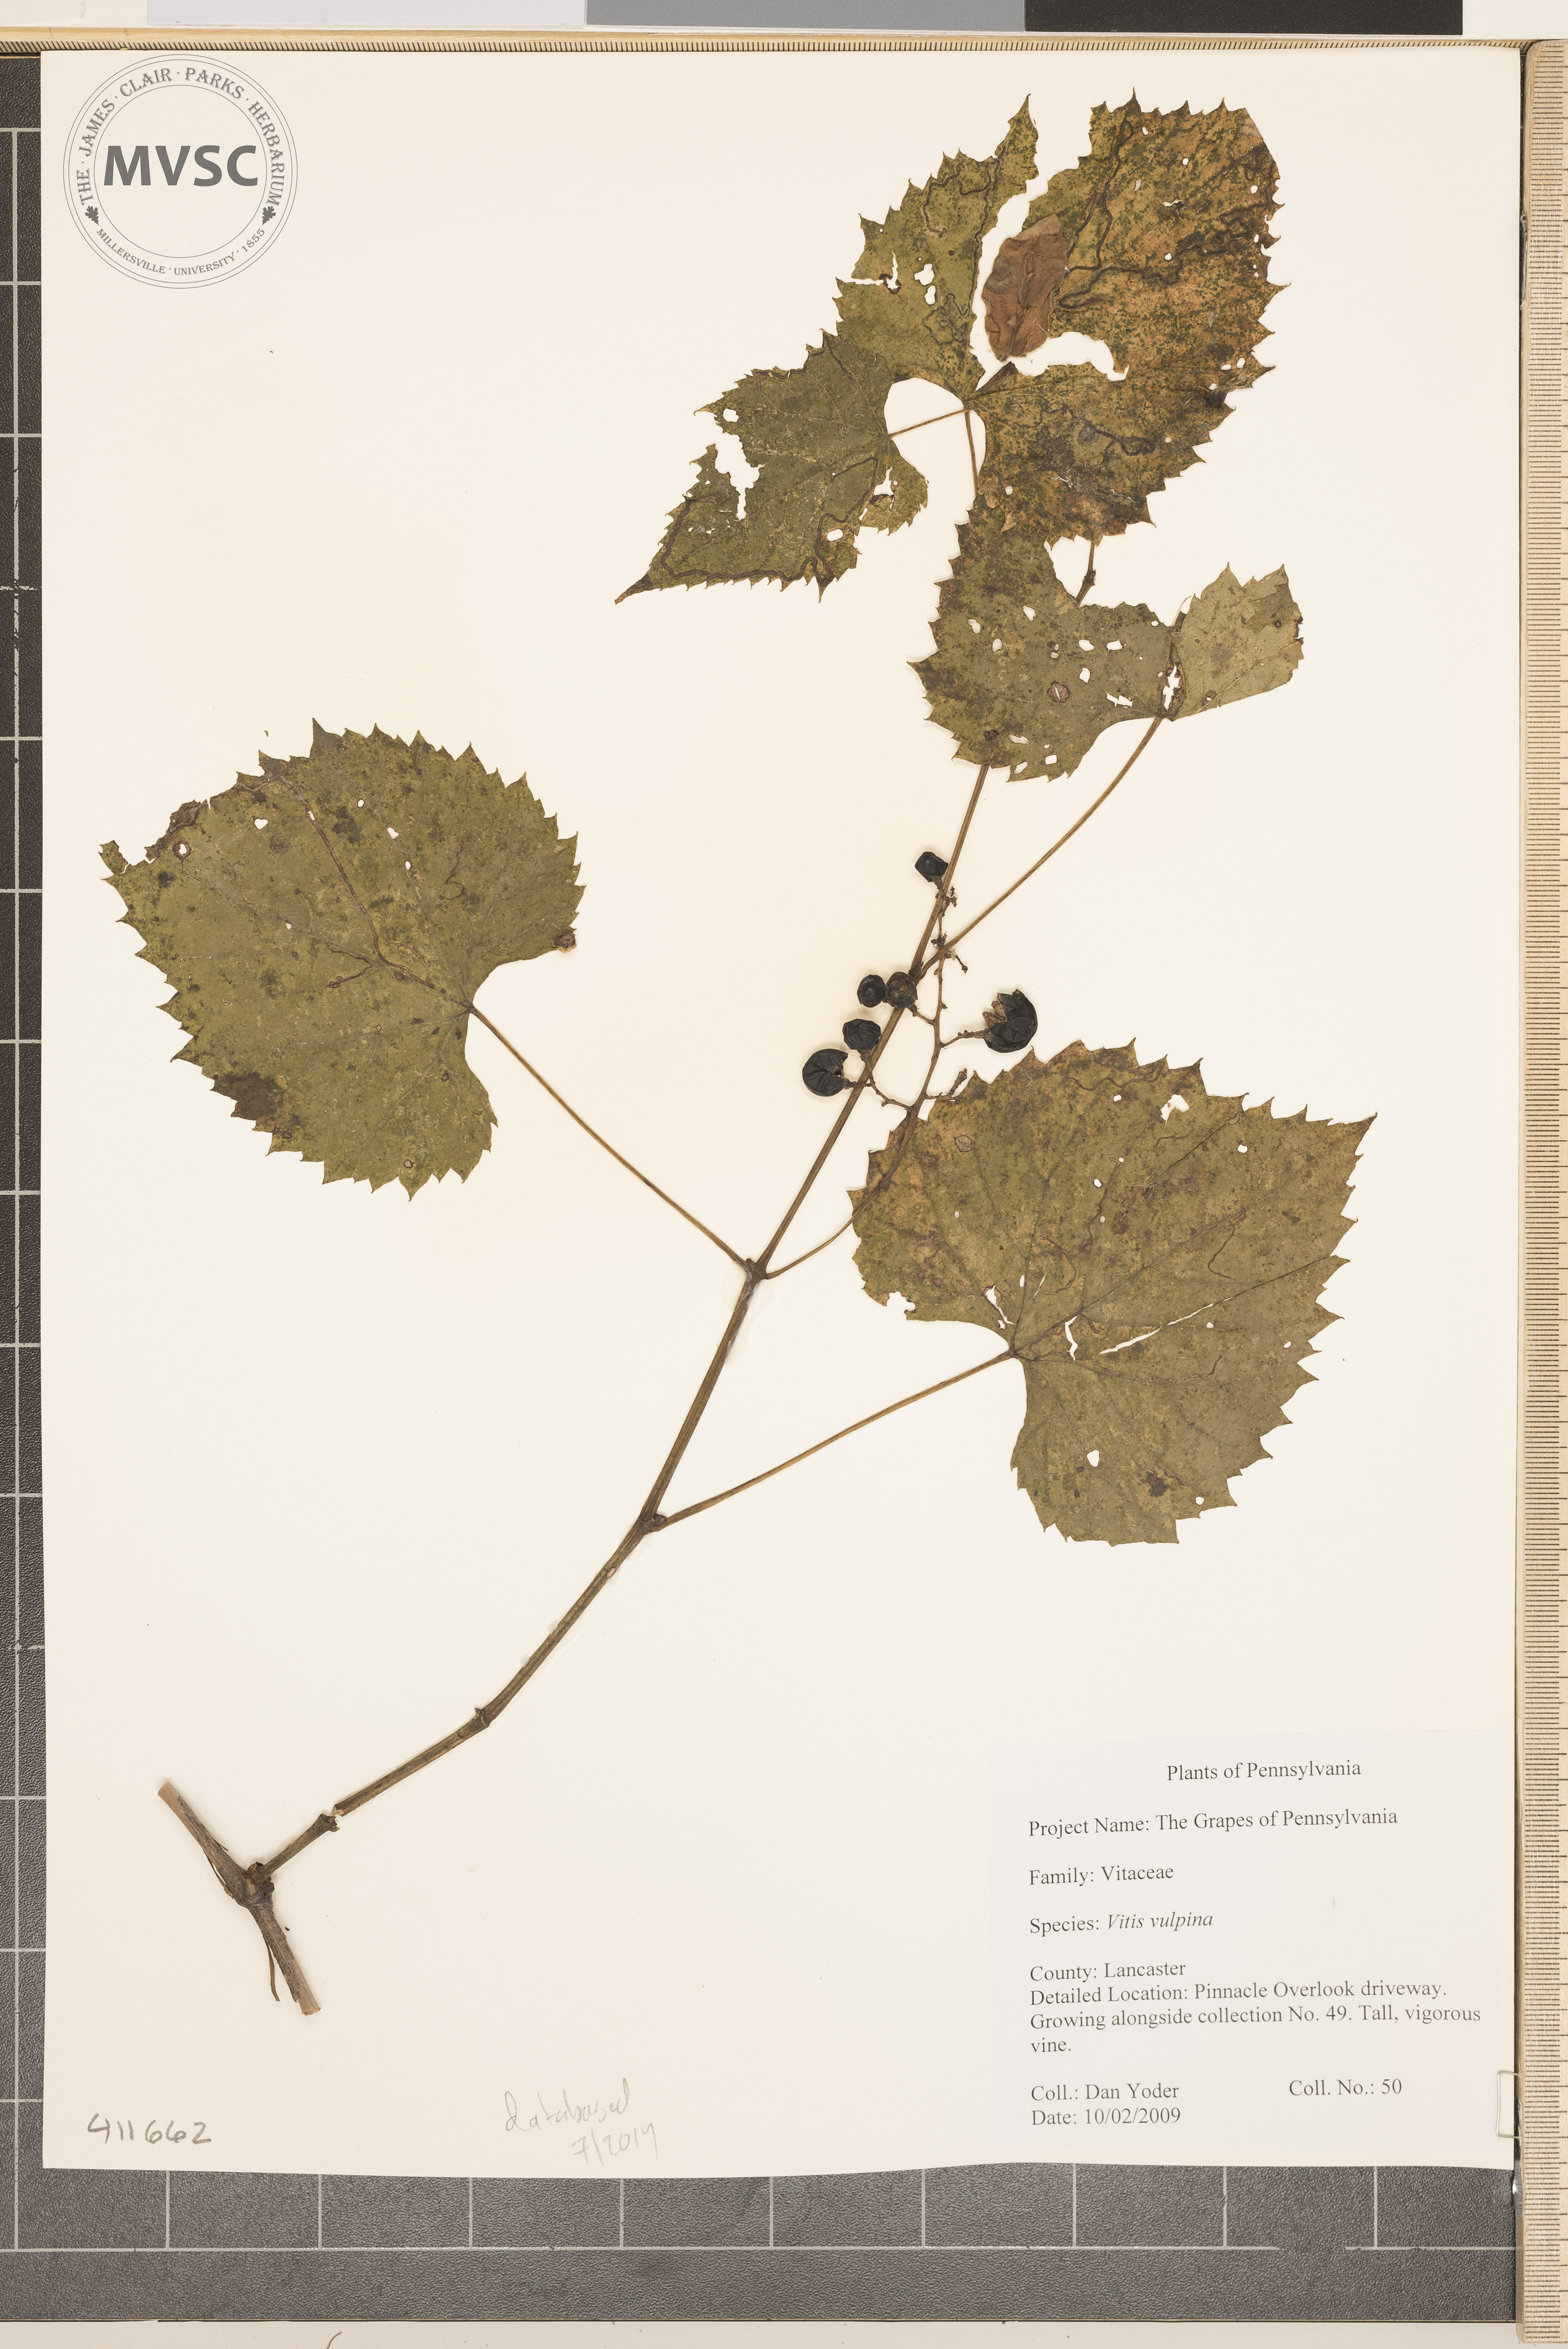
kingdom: Plantae
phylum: Tracheophyta
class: Magnoliopsida
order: Vitales
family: Vitaceae
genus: Vitis
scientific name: Vitis vulpina
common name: Frost Grape
